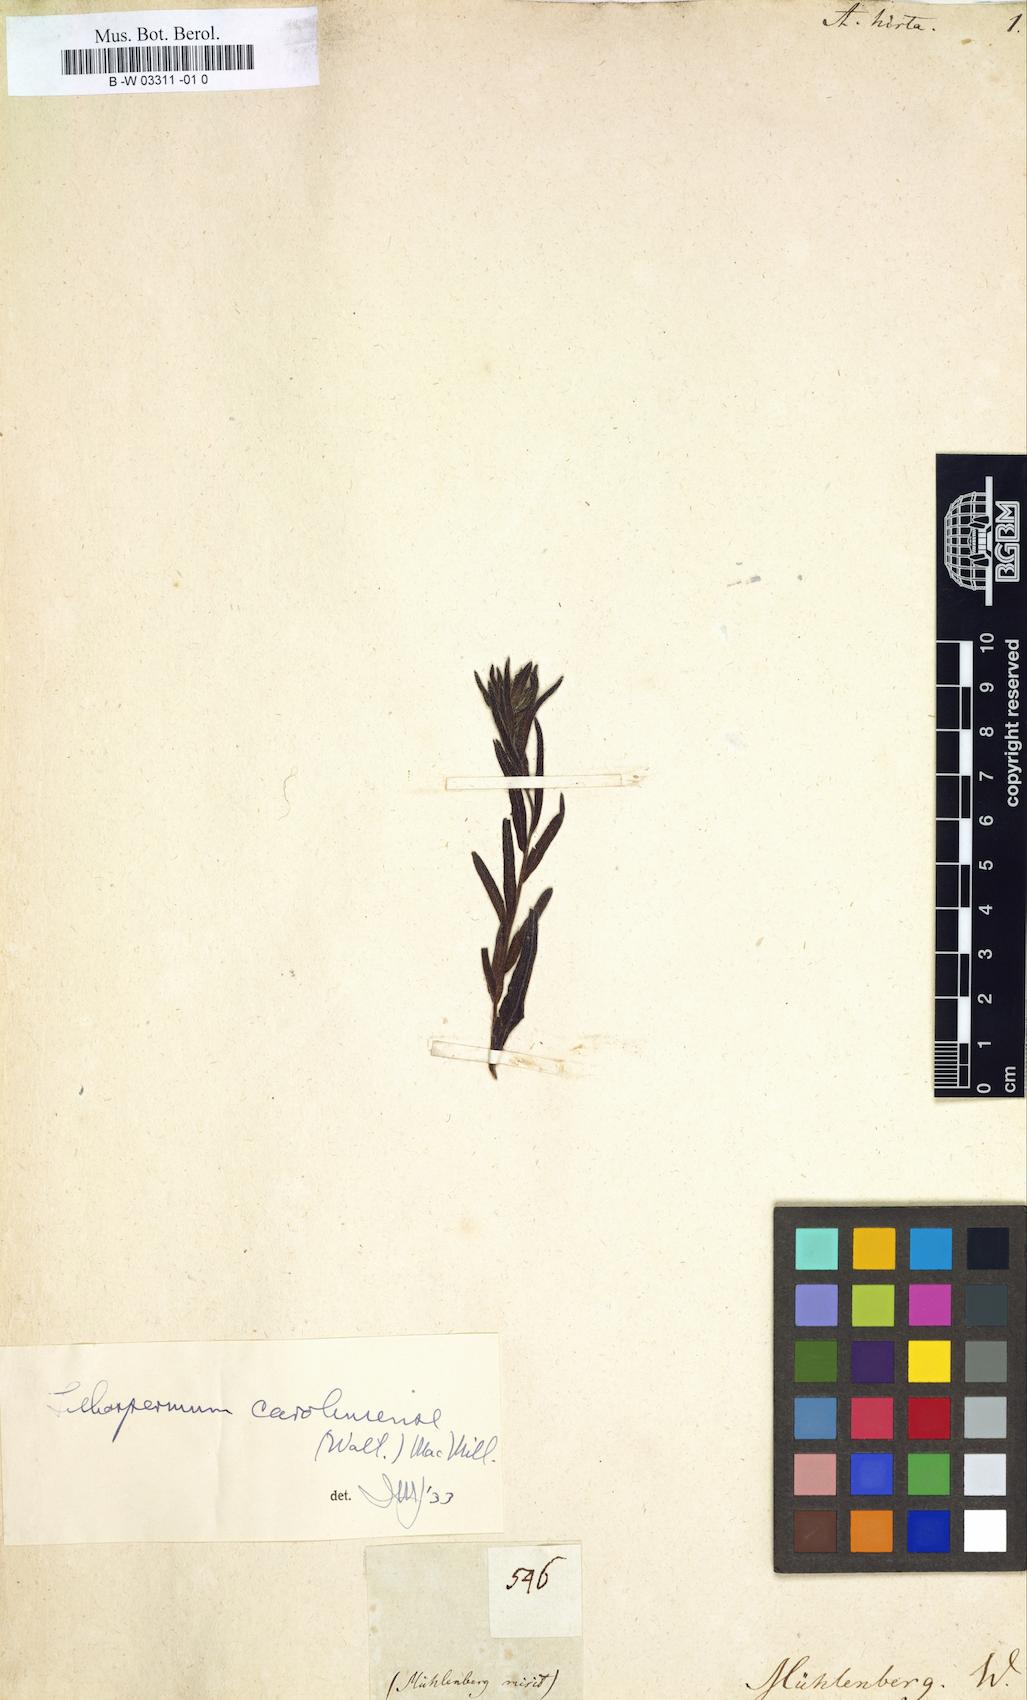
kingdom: Plantae
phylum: Tracheophyta
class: Magnoliopsida
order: Boraginales
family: Boraginaceae
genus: Lithospermum
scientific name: Lithospermum caroliniense
